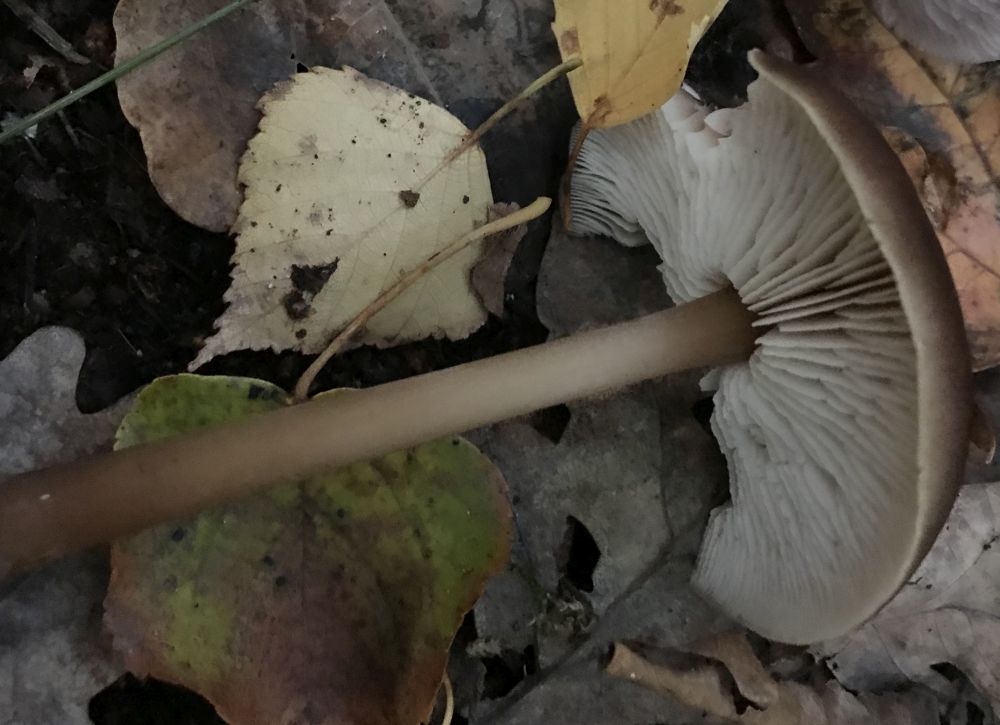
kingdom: Fungi
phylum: Basidiomycota
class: Agaricomycetes
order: Agaricales
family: Omphalotaceae
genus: Rhodocollybia
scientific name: Rhodocollybia butyracea
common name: keglestokket fladhat
